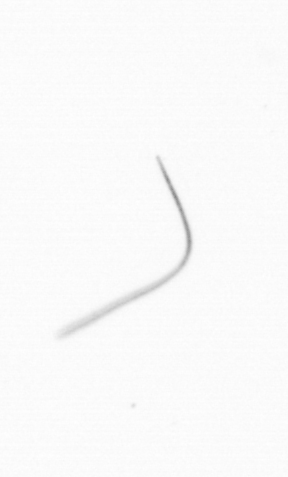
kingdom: Chromista
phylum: Ochrophyta
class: Bacillariophyceae
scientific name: Bacillariophyceae
